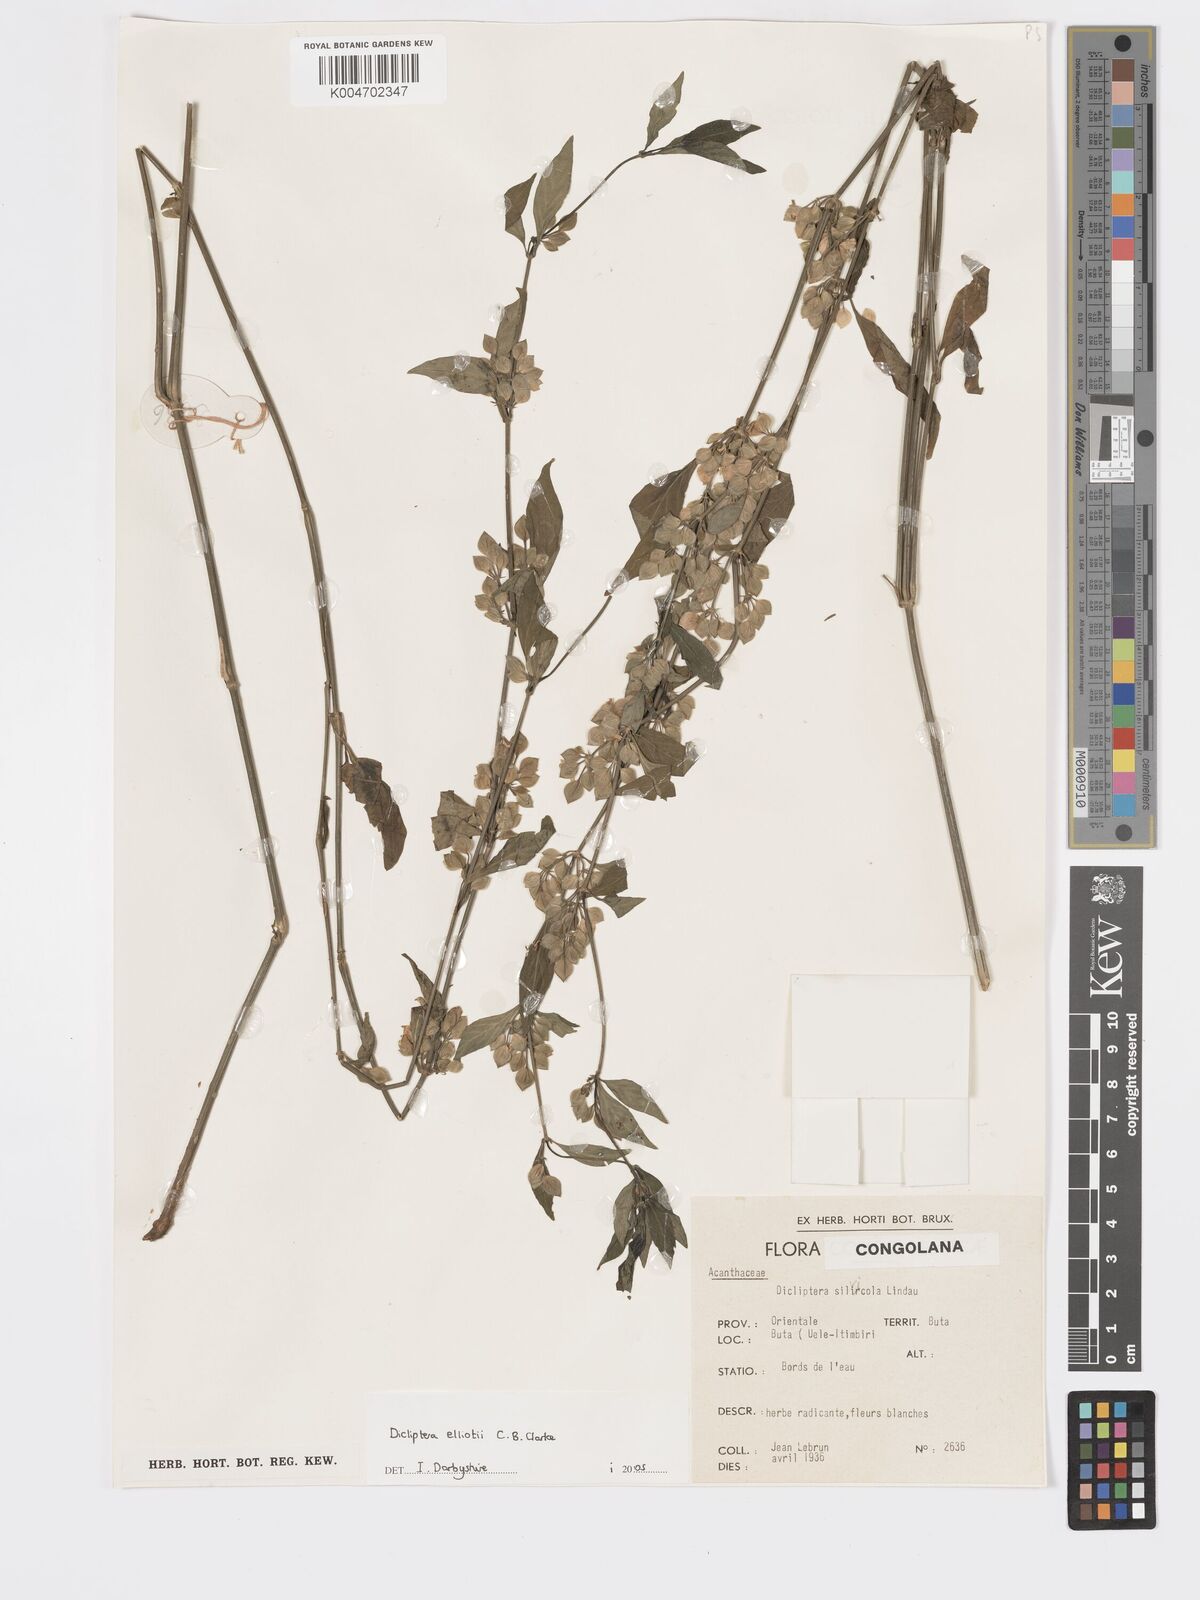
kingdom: Plantae
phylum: Tracheophyta
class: Magnoliopsida
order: Lamiales
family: Acanthaceae
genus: Dicliptera
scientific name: Dicliptera elliotii
